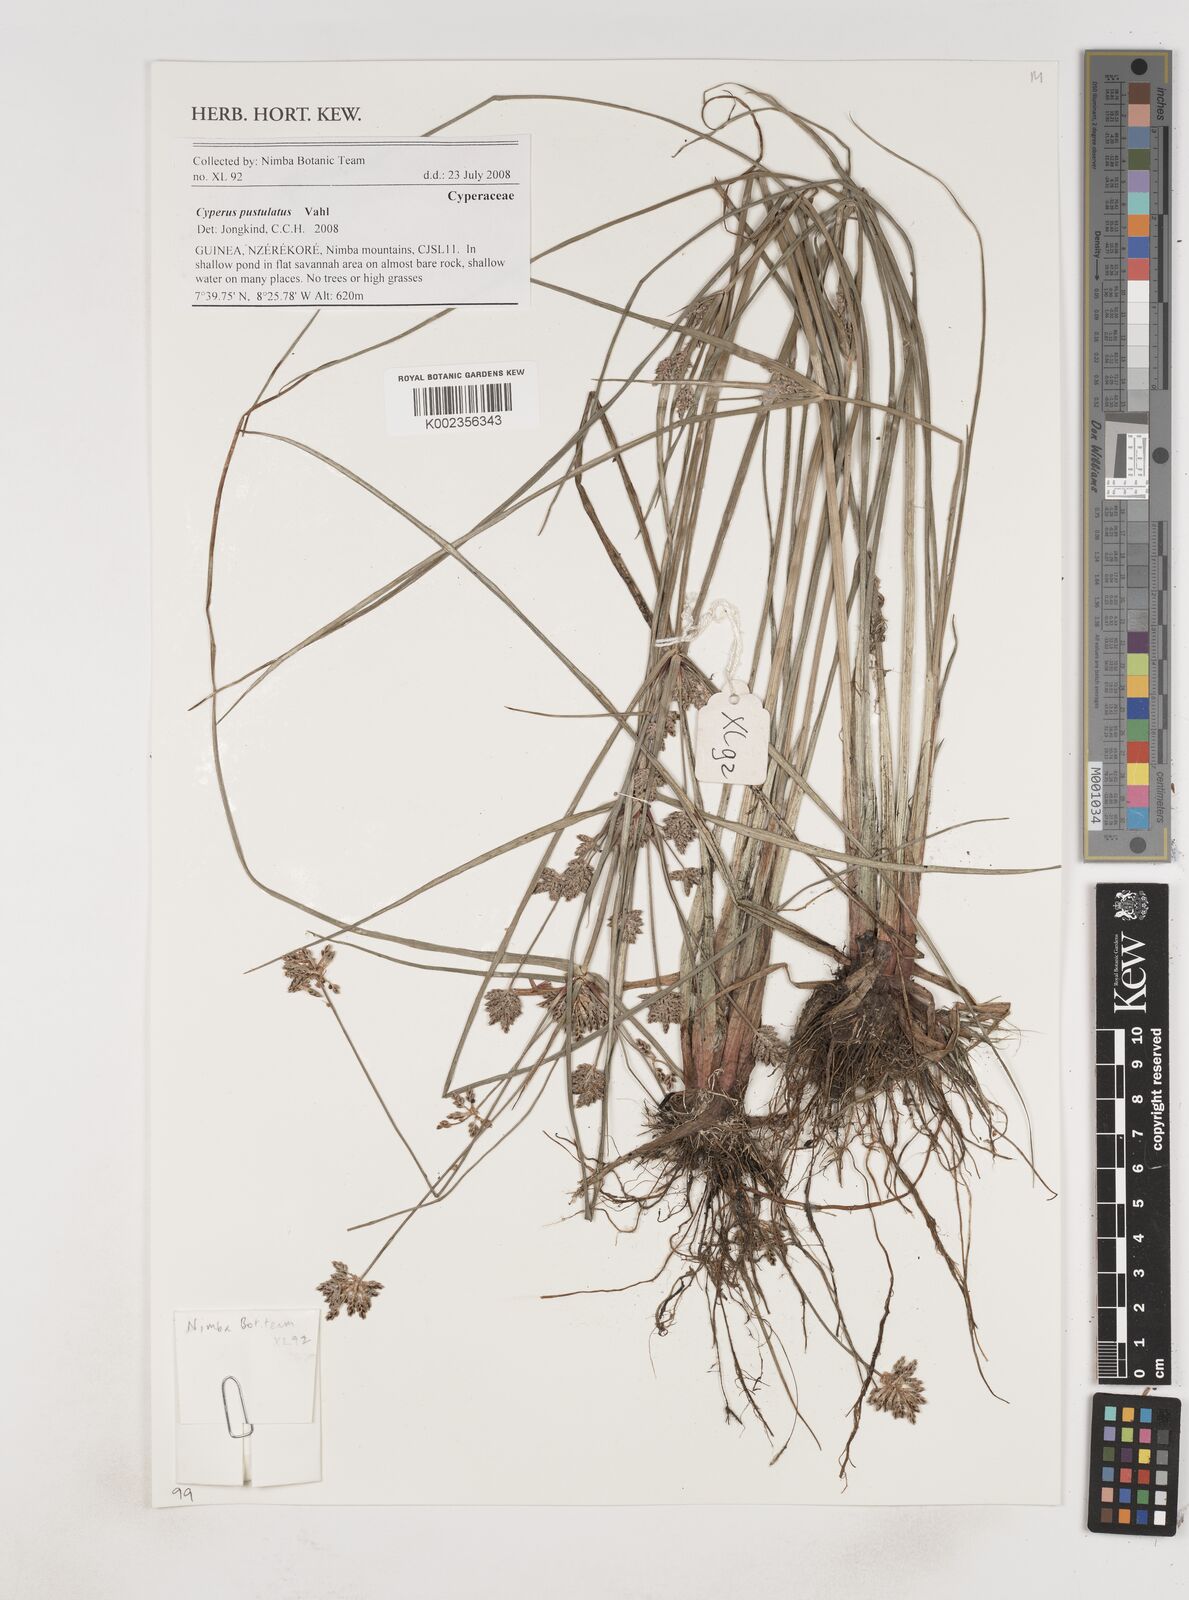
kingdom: Plantae
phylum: Tracheophyta
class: Liliopsida
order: Poales
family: Cyperaceae
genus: Cyperus
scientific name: Cyperus pustulatus
